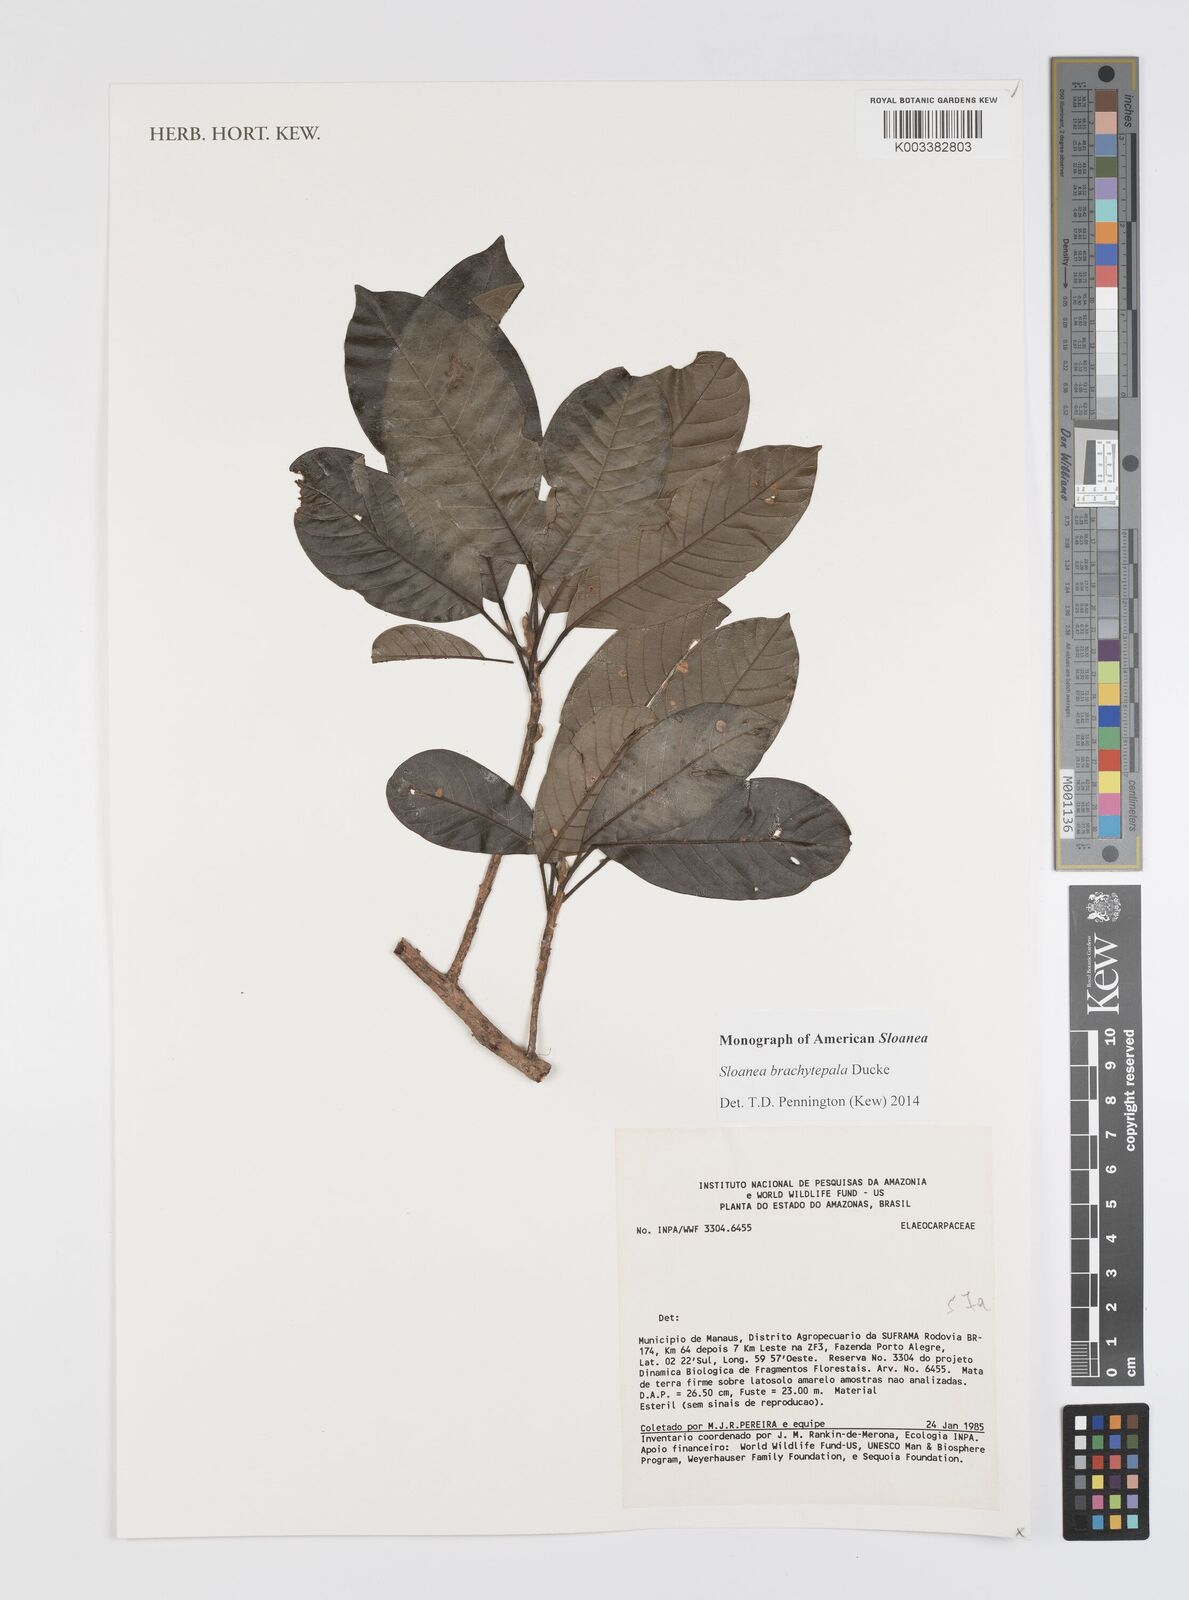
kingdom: Plantae
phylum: Tracheophyta
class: Magnoliopsida
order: Oxalidales
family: Elaeocarpaceae
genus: Sloanea
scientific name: Sloanea brachytepala
